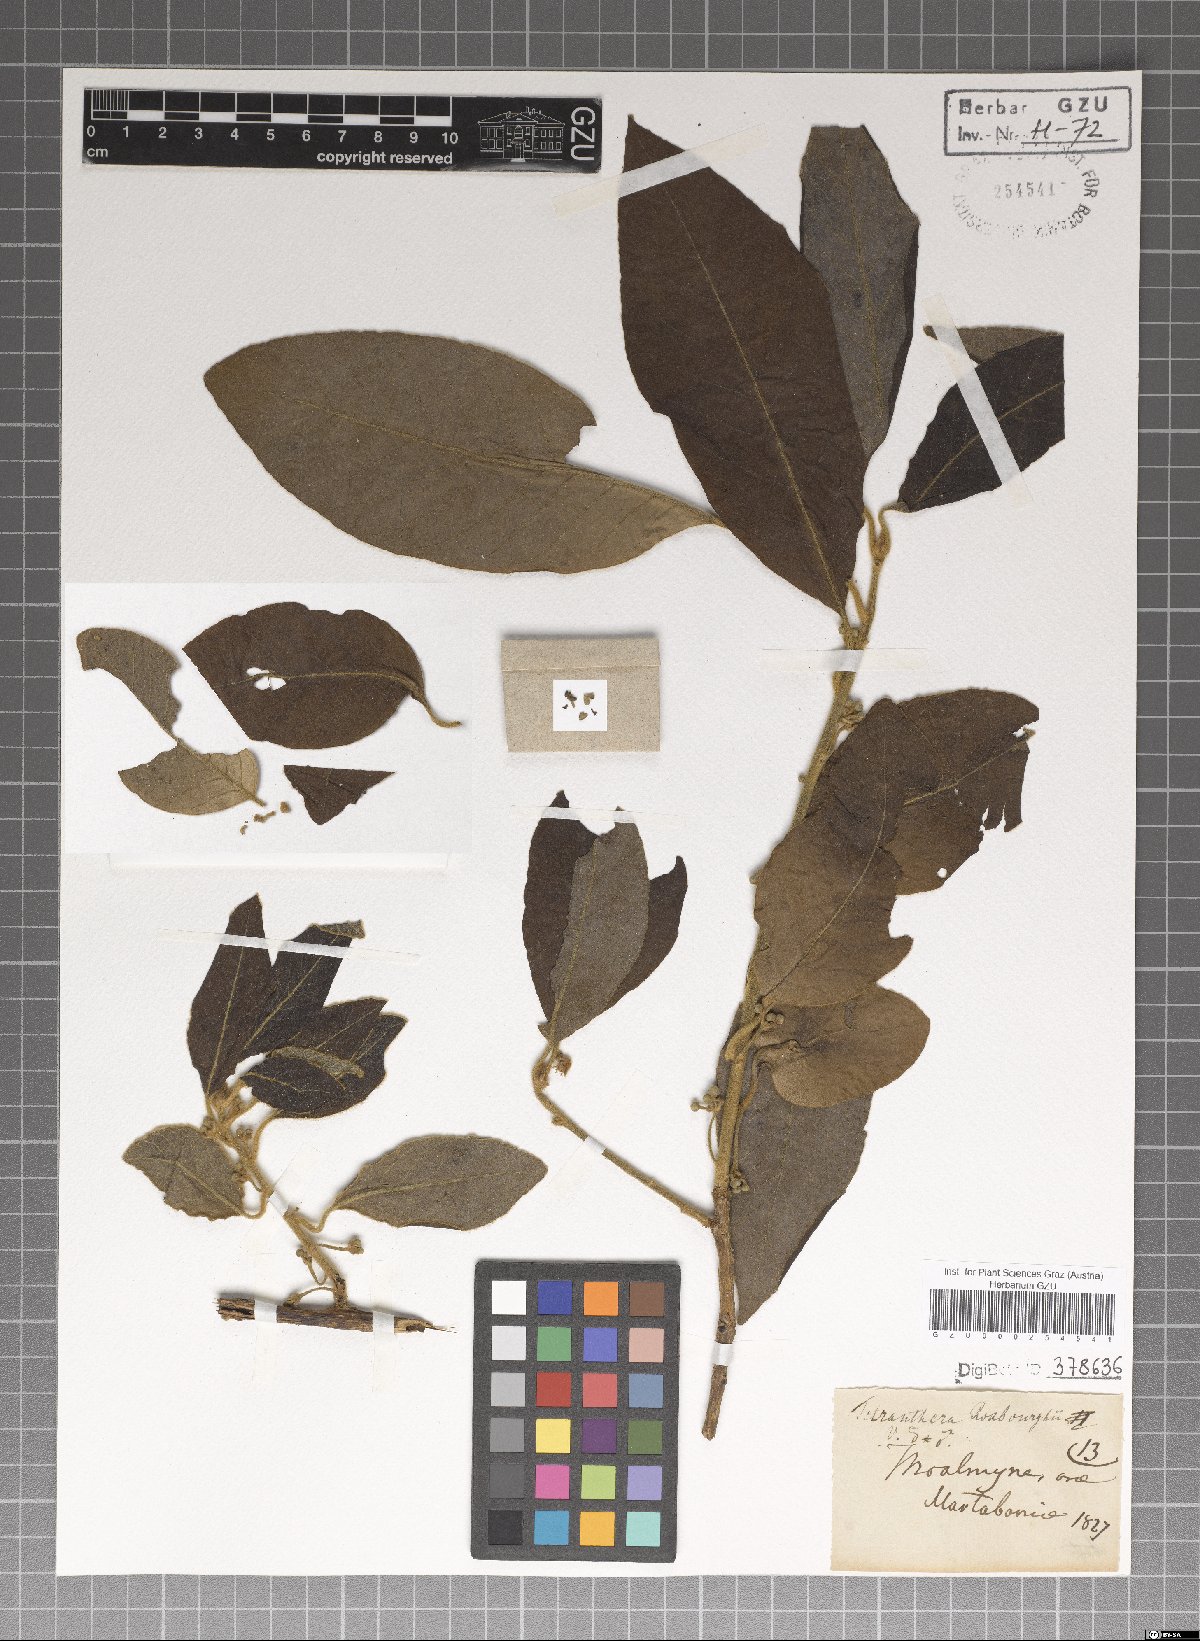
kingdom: Plantae
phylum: Tracheophyta
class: Magnoliopsida
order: Laurales
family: Lauraceae
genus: Litsea
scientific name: Litsea glutinosa
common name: Indian-laurel
